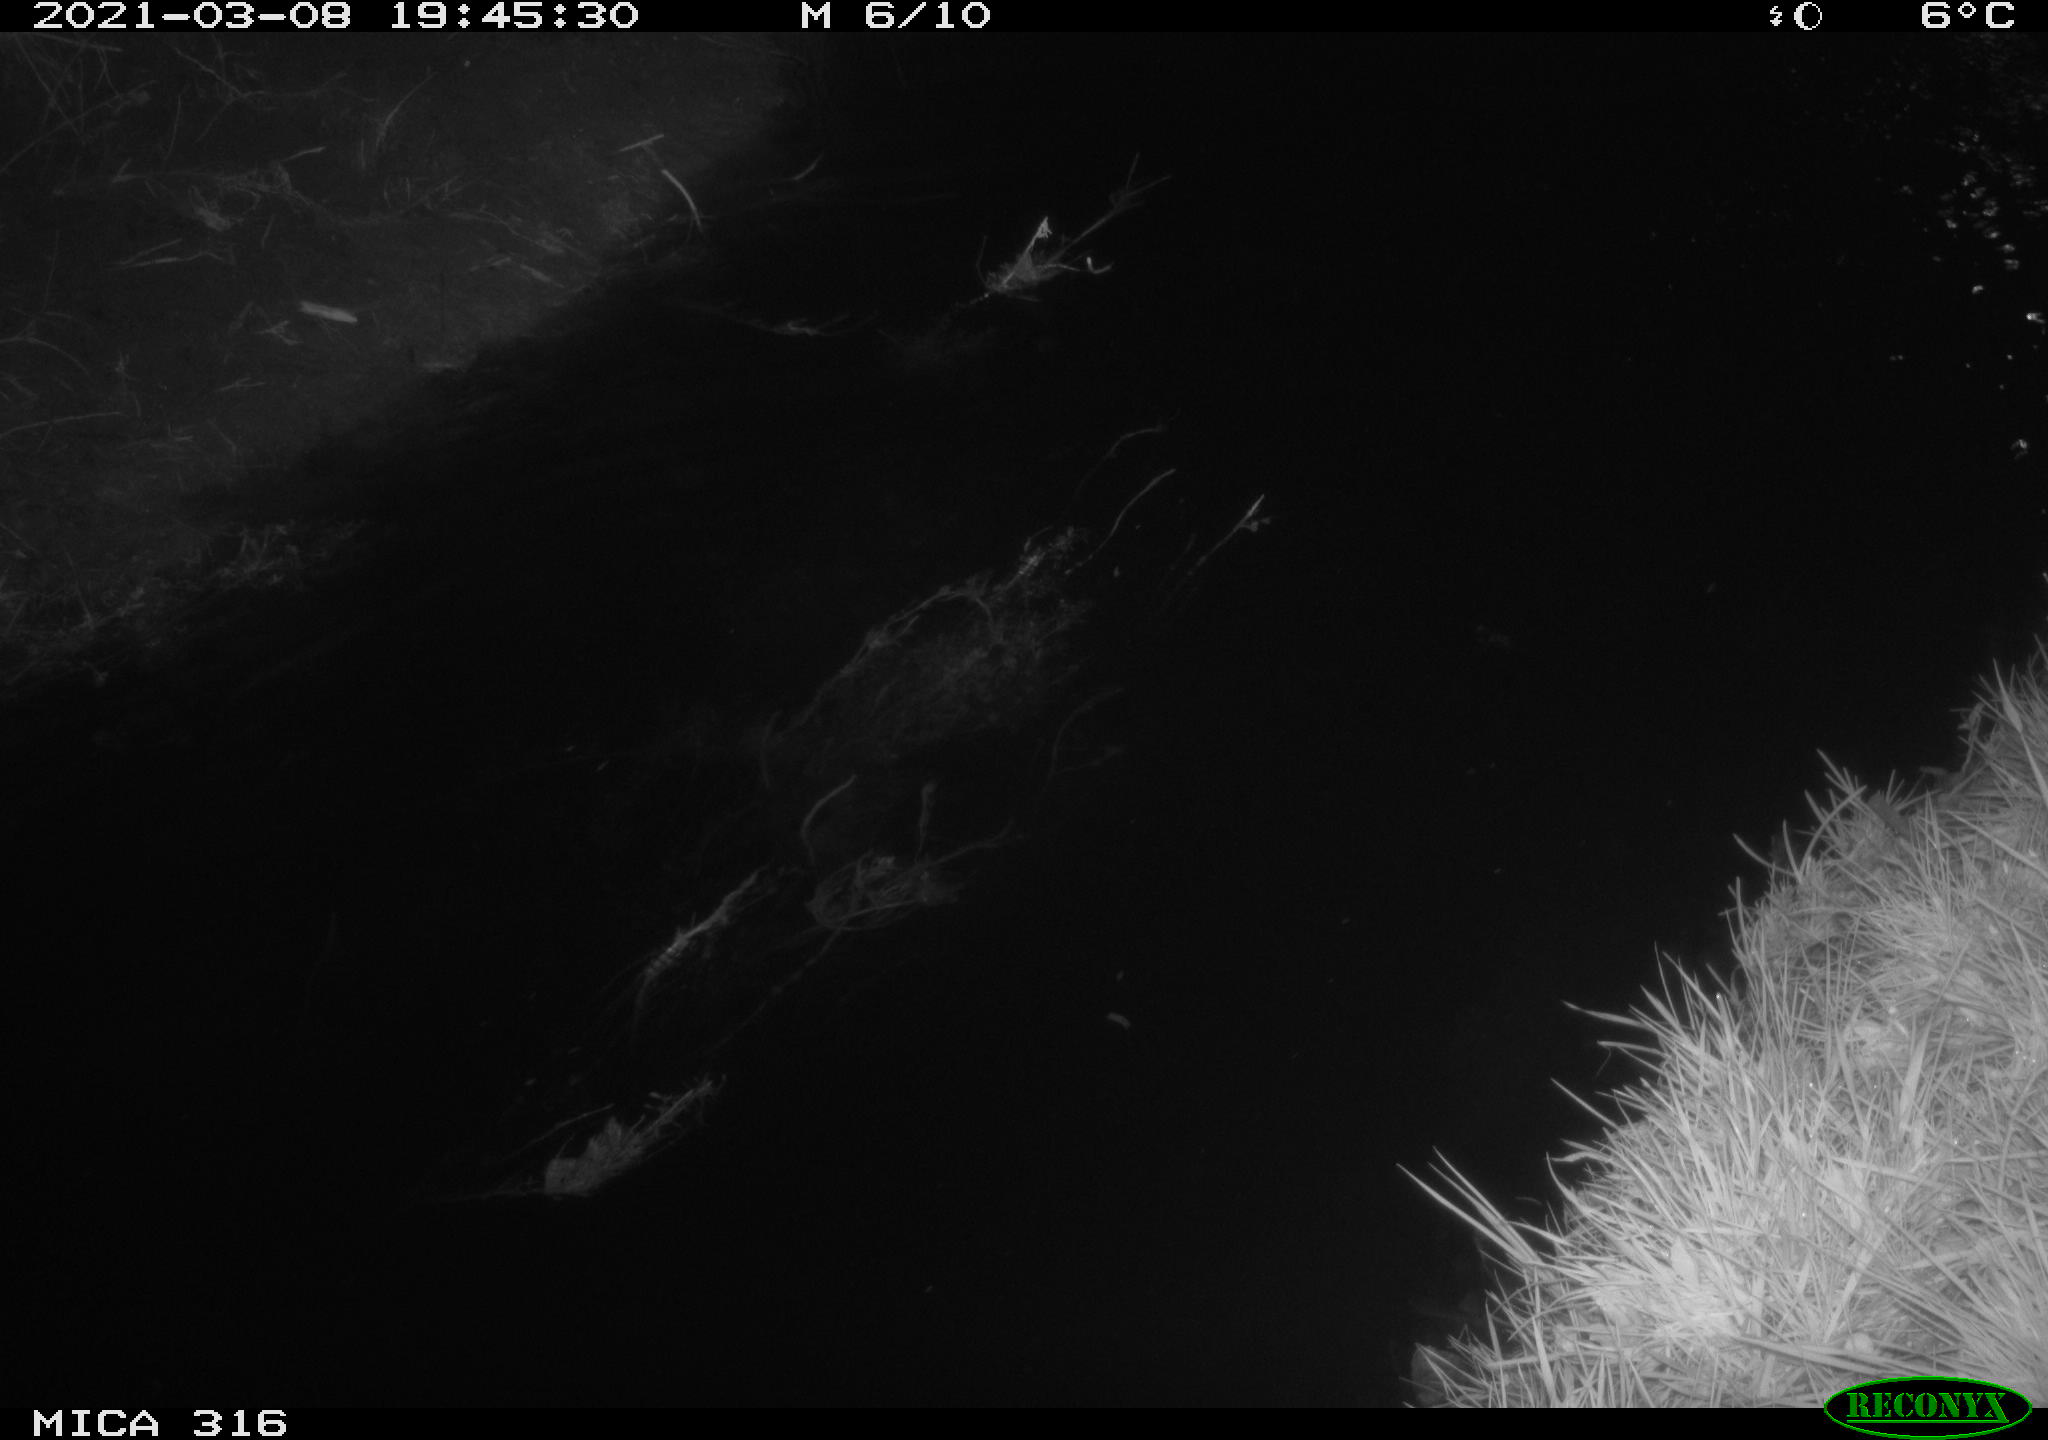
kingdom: Animalia
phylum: Chordata
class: Aves
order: Anseriformes
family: Anatidae
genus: Anas
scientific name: Anas platyrhynchos
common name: Mallard
